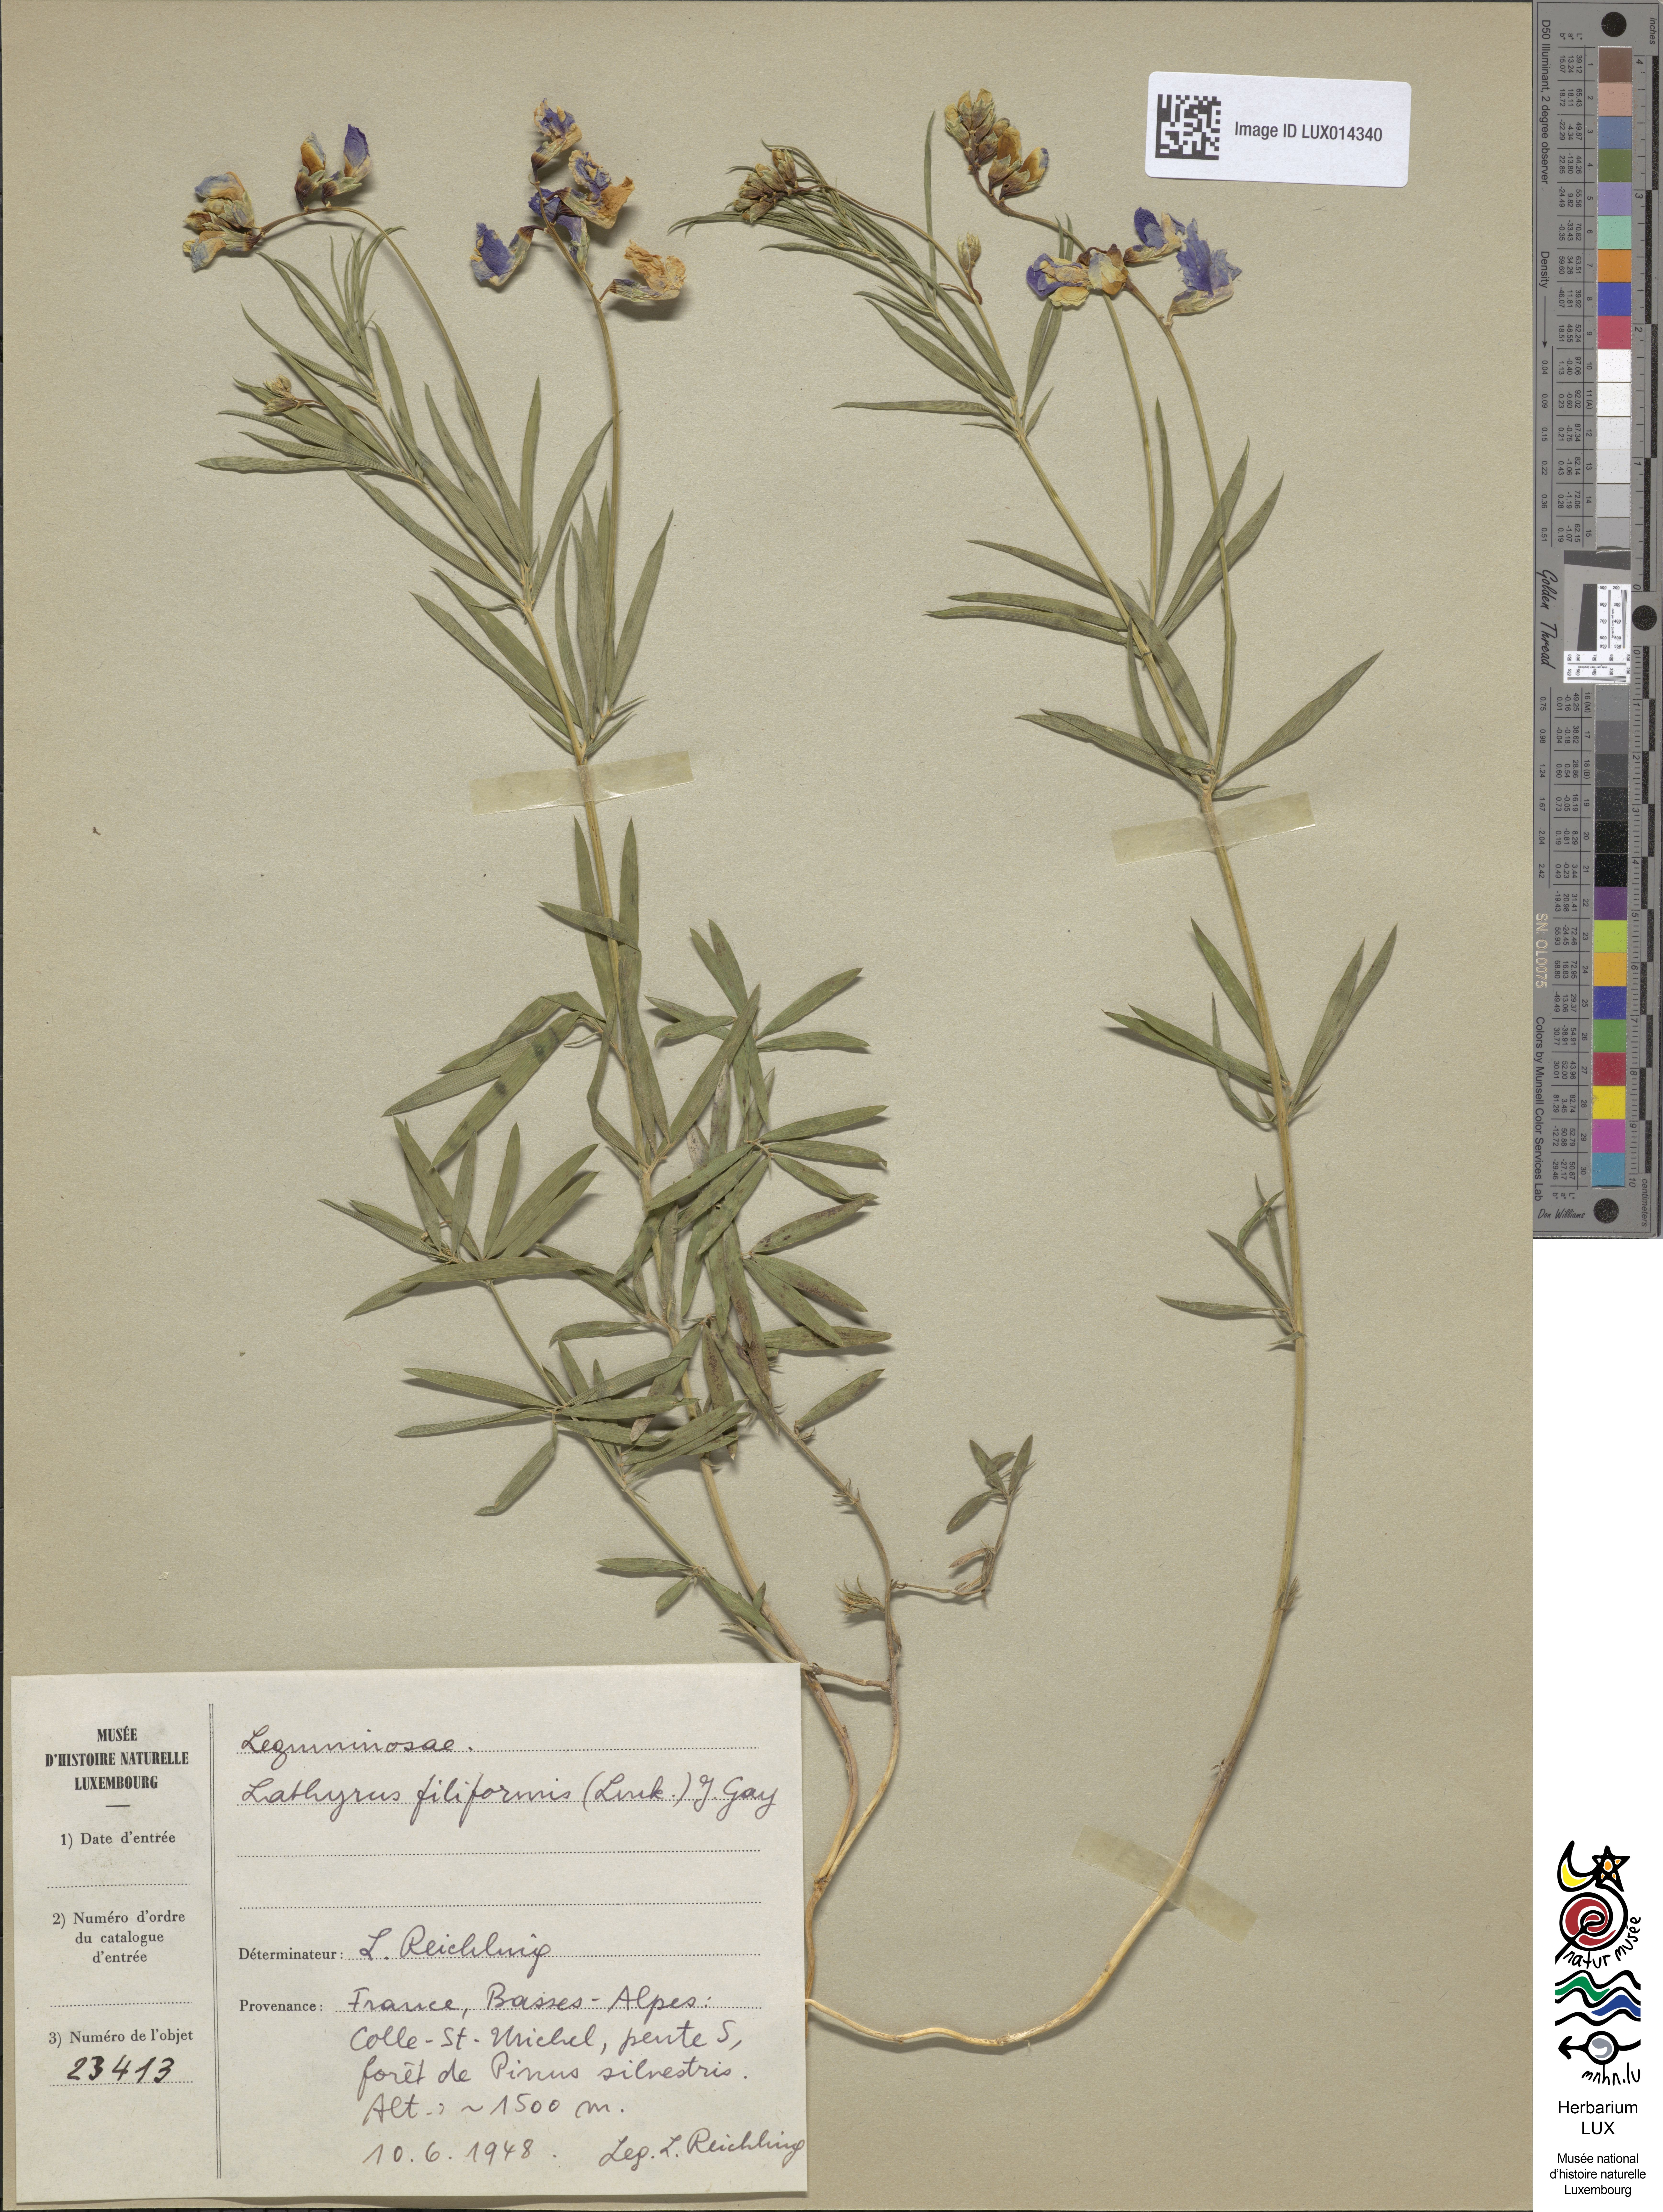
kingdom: Plantae
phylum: Tracheophyta
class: Magnoliopsida
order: Fabales
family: Fabaceae
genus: Lathyrus
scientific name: Lathyrus filiformis
